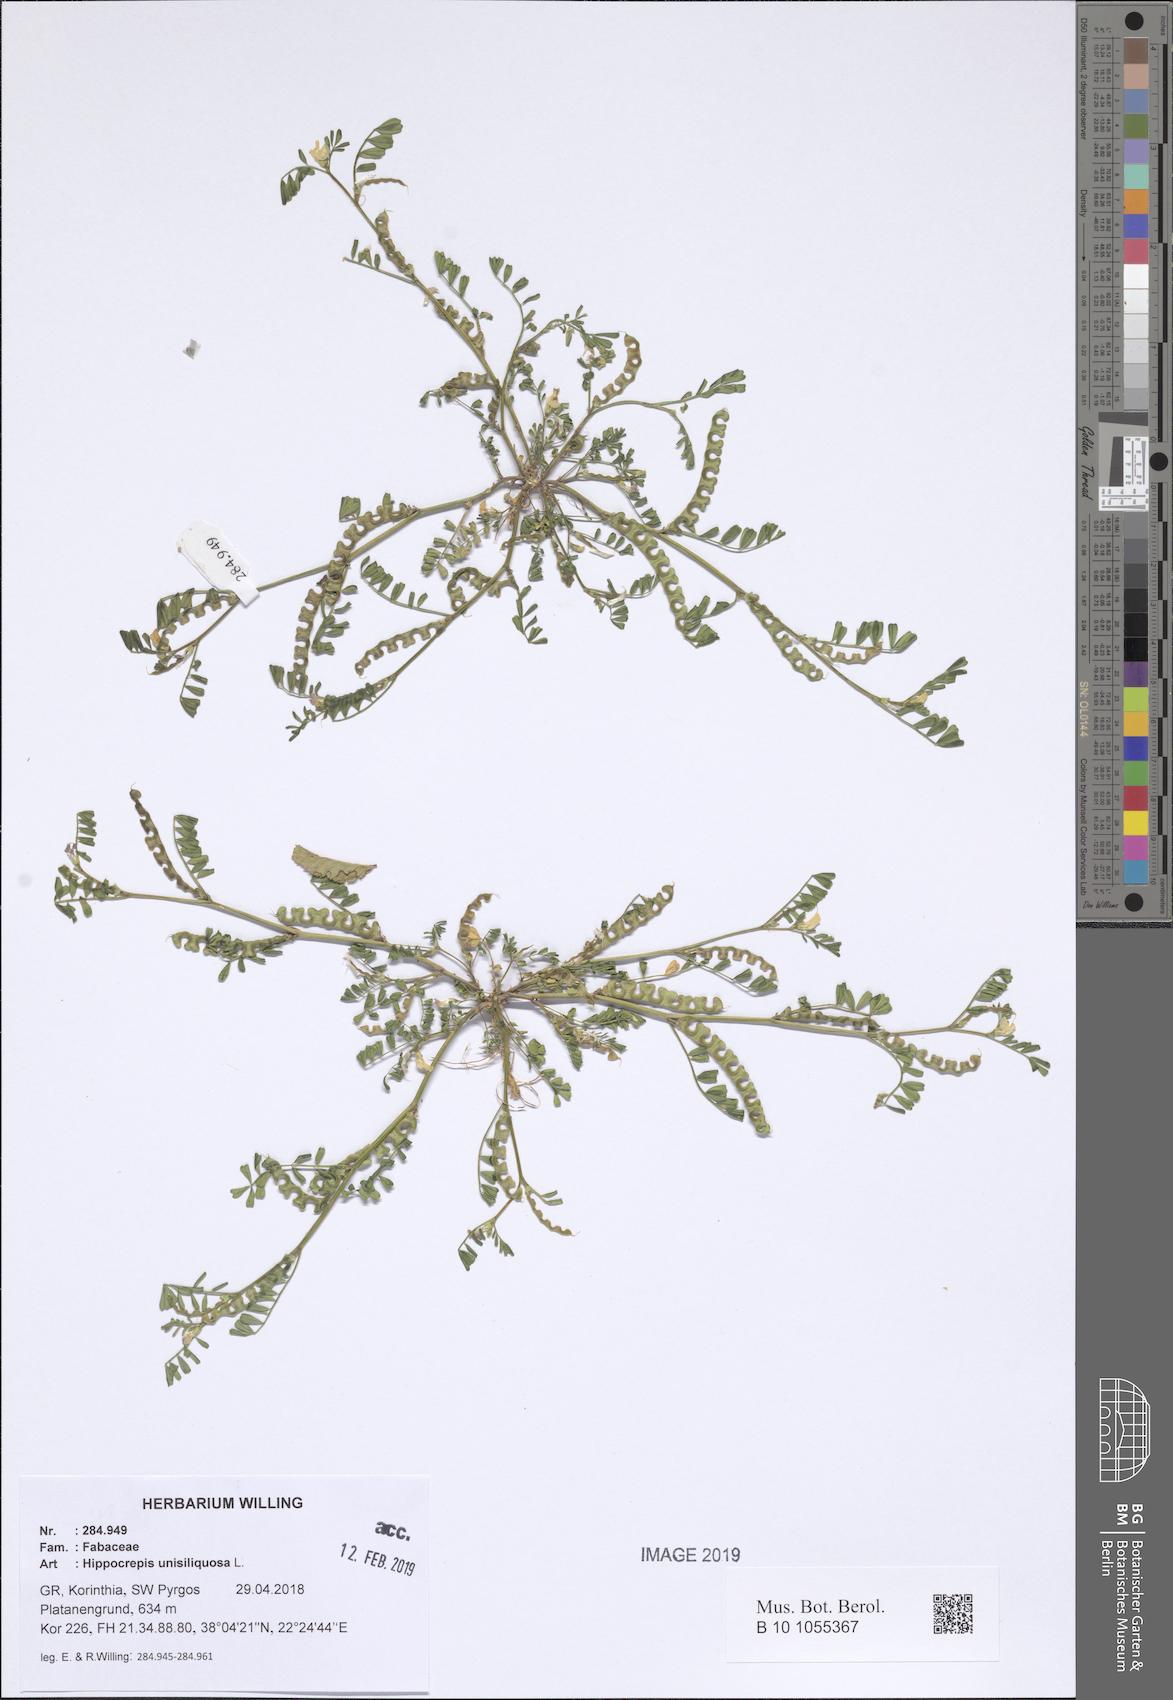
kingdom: Plantae
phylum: Tracheophyta
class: Magnoliopsida
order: Fabales
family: Fabaceae
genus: Hippocrepis
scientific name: Hippocrepis unisiliquosa
